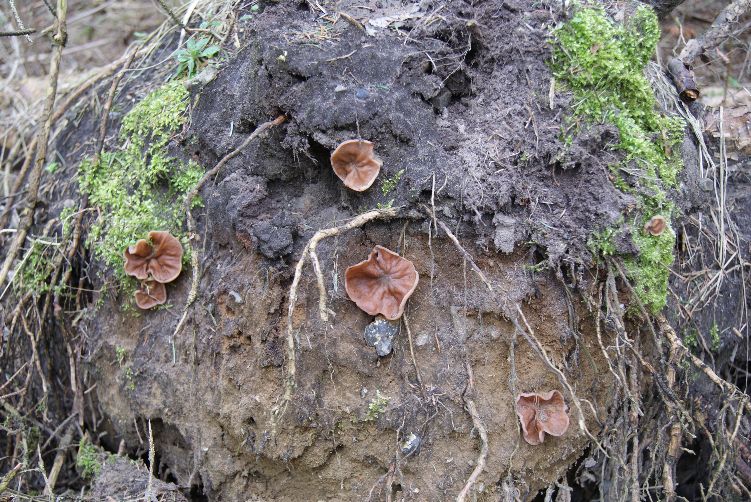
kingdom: Fungi
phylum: Ascomycota
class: Pezizomycetes
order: Pezizales
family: Discinaceae
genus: Discina
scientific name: Discina ancilis
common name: udbredt stenmorkel
